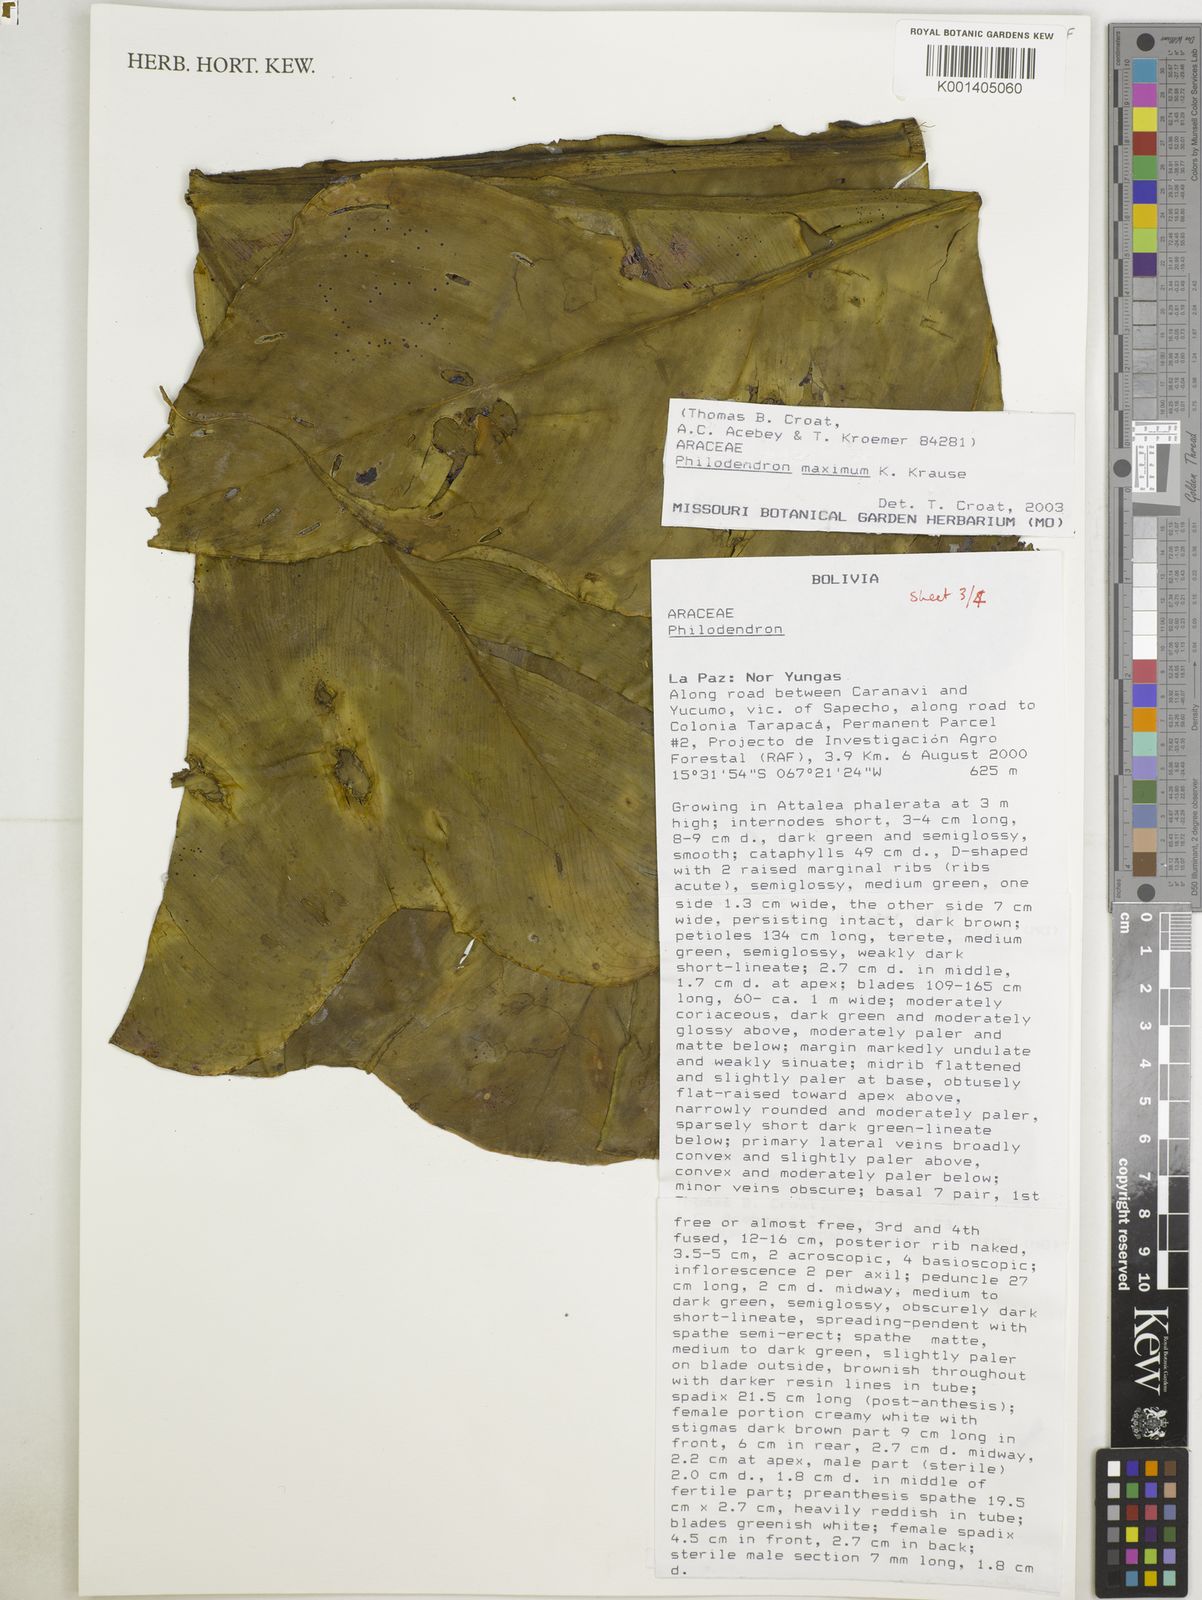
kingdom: Plantae
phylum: Tracheophyta
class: Liliopsida
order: Alismatales
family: Araceae
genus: Philodendron
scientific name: Philodendron maximum
